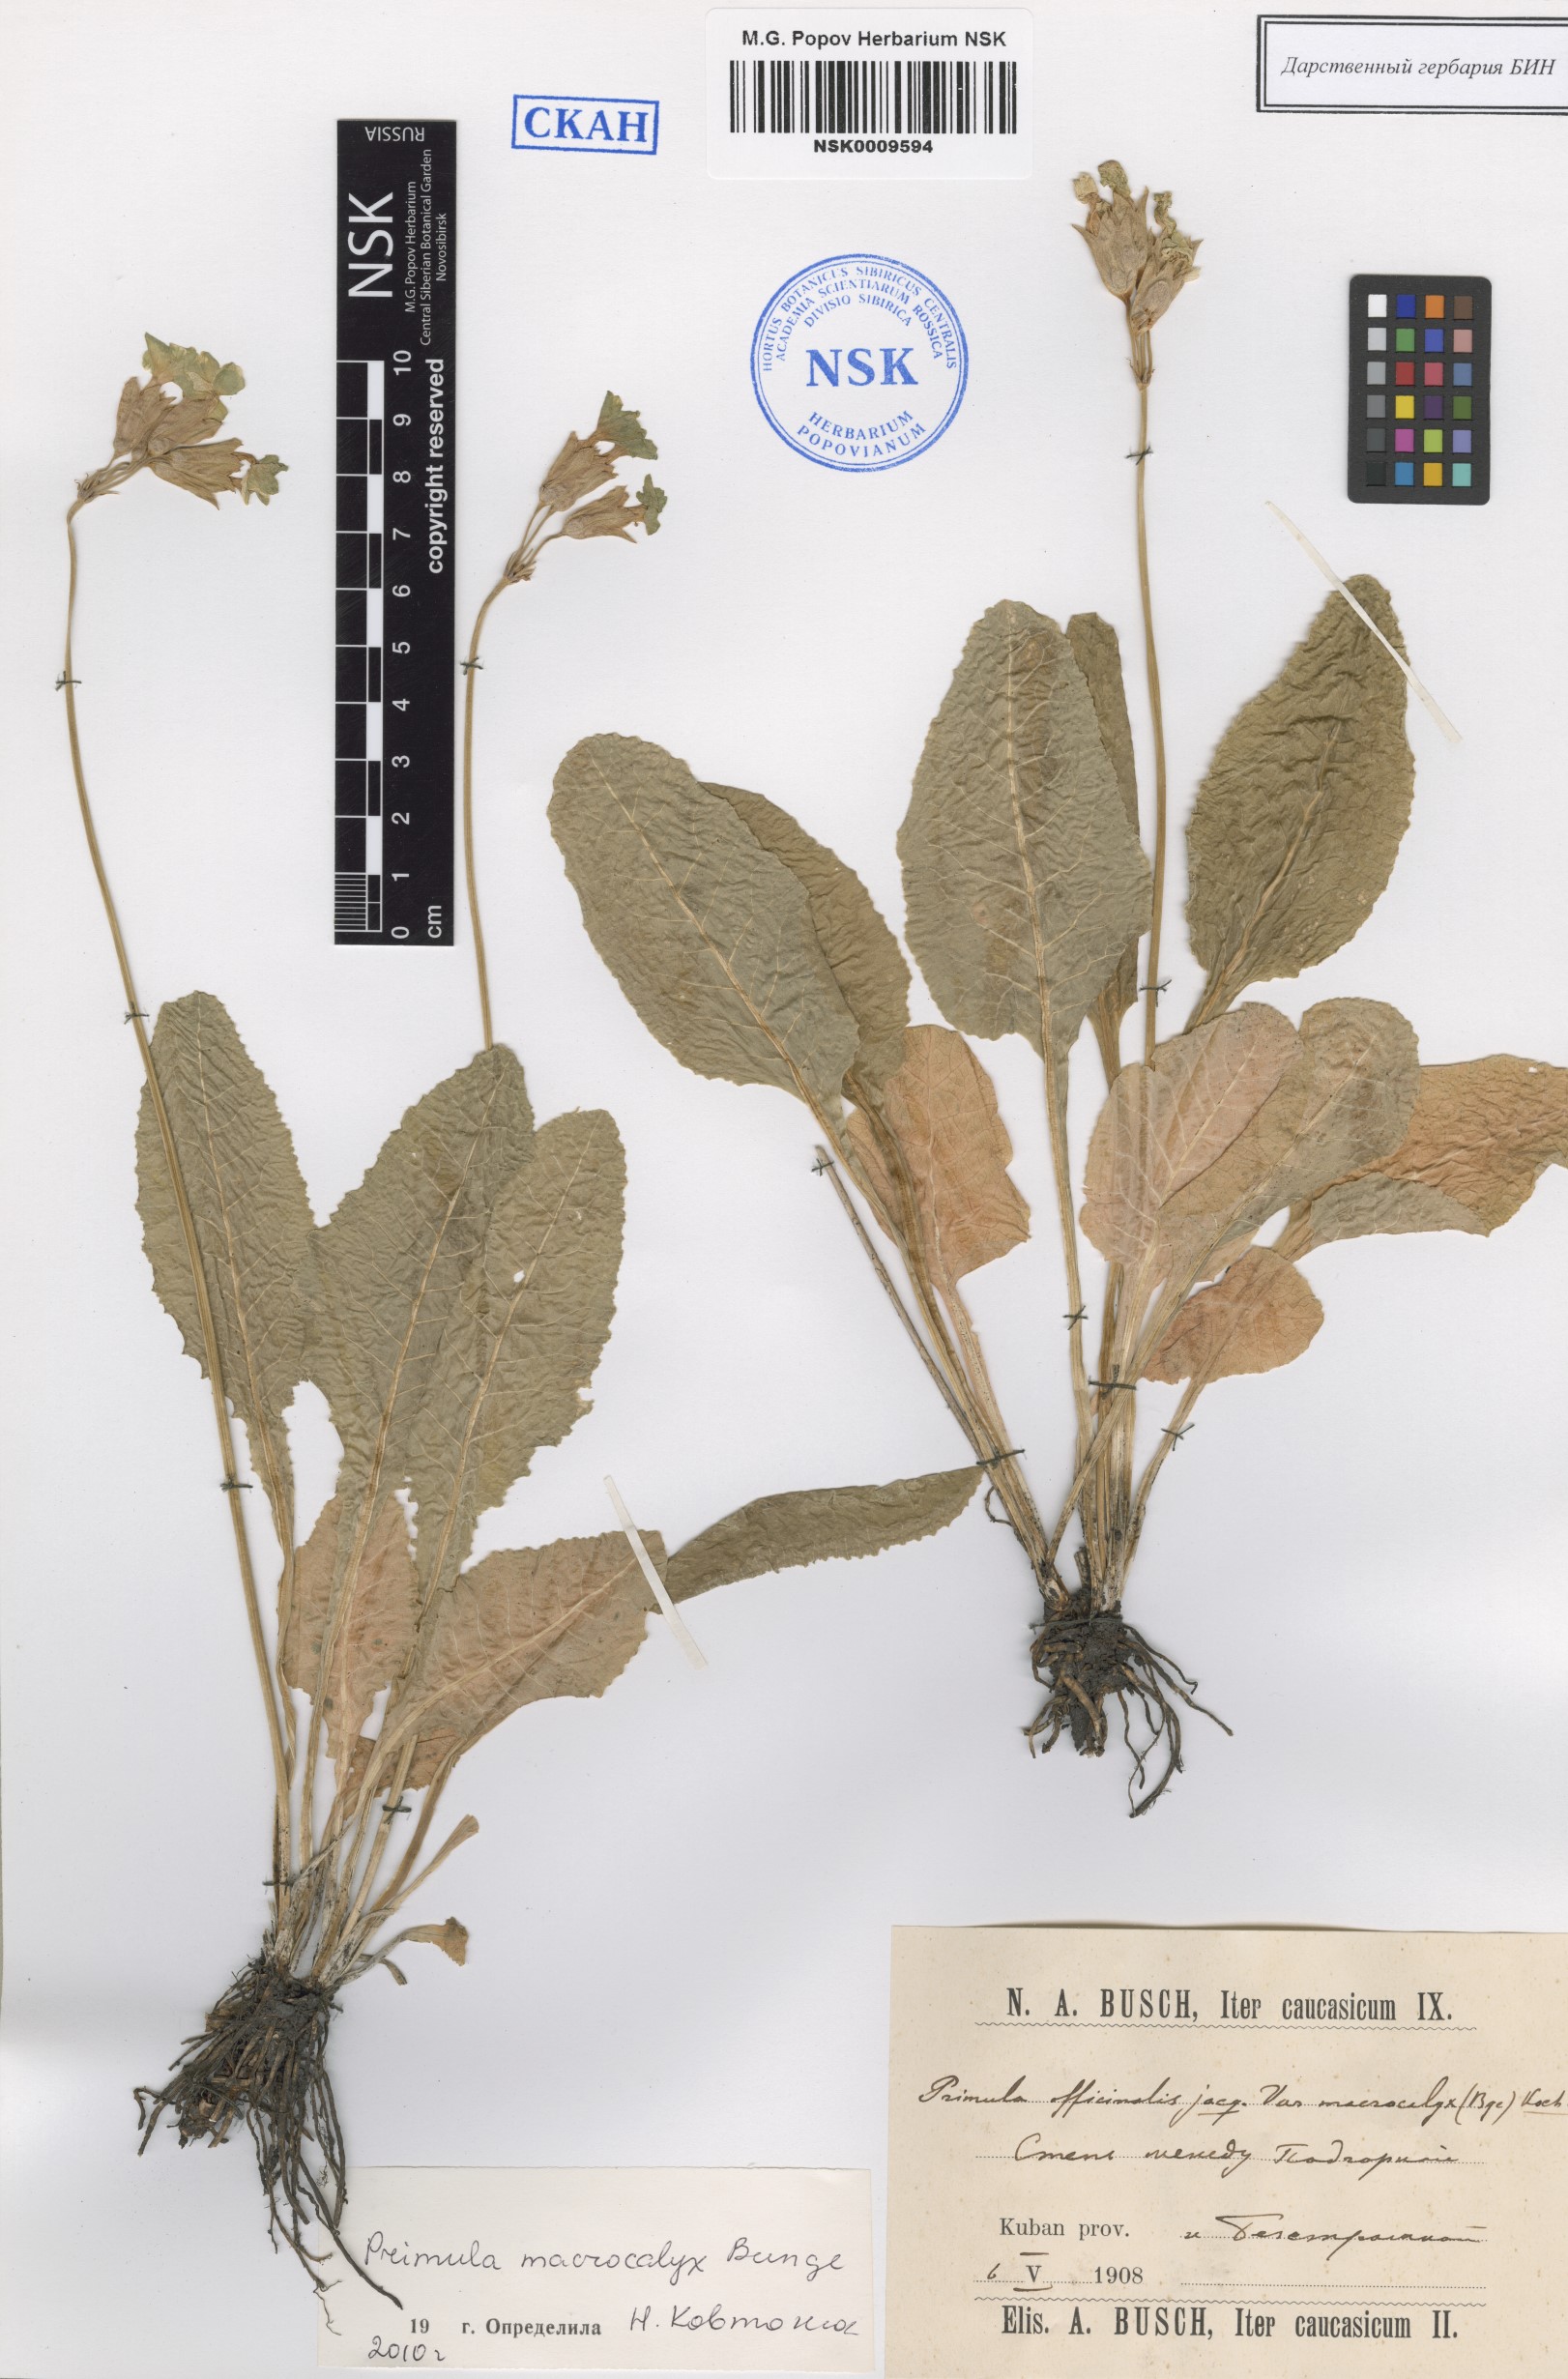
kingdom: Plantae
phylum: Tracheophyta
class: Magnoliopsida
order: Ericales
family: Primulaceae
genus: Primula
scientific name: Primula veris
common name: Cowslip
